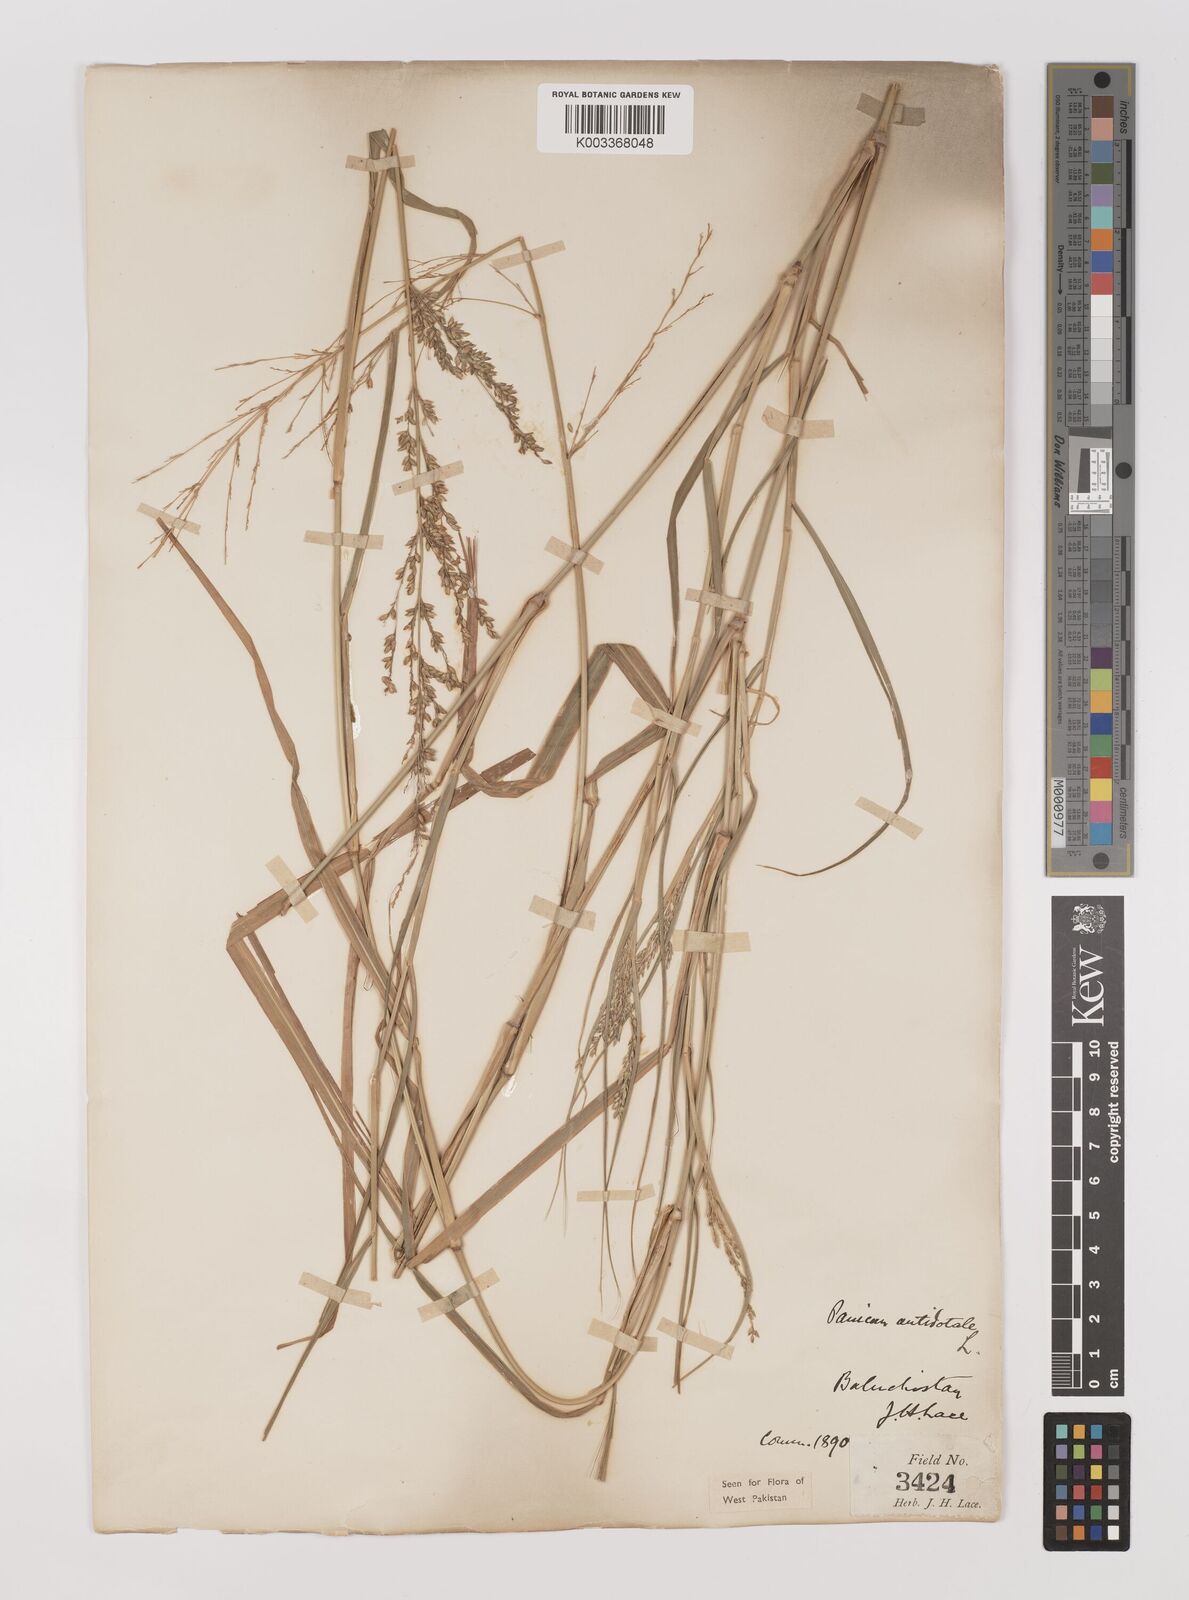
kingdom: Plantae
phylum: Tracheophyta
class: Liliopsida
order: Poales
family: Poaceae
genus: Panicum
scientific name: Panicum antidotale
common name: Blue panicum
